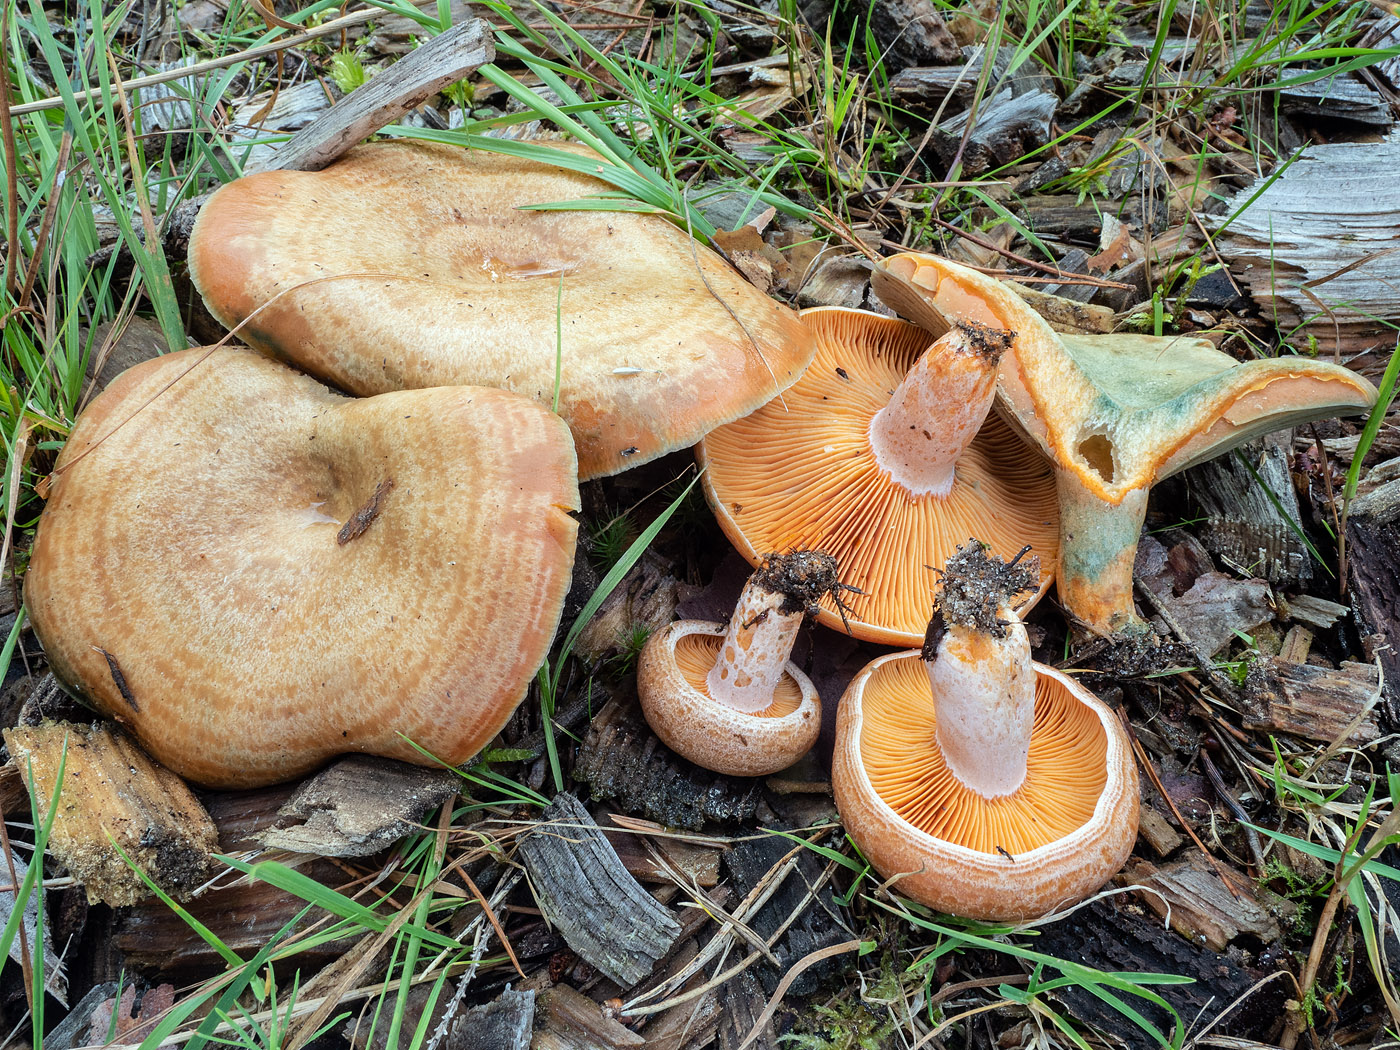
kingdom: Fungi
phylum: Basidiomycota
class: Agaricomycetes
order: Russulales
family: Russulaceae
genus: Lactarius
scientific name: Lactarius quieticolor
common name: tvefarvet mælkehat
